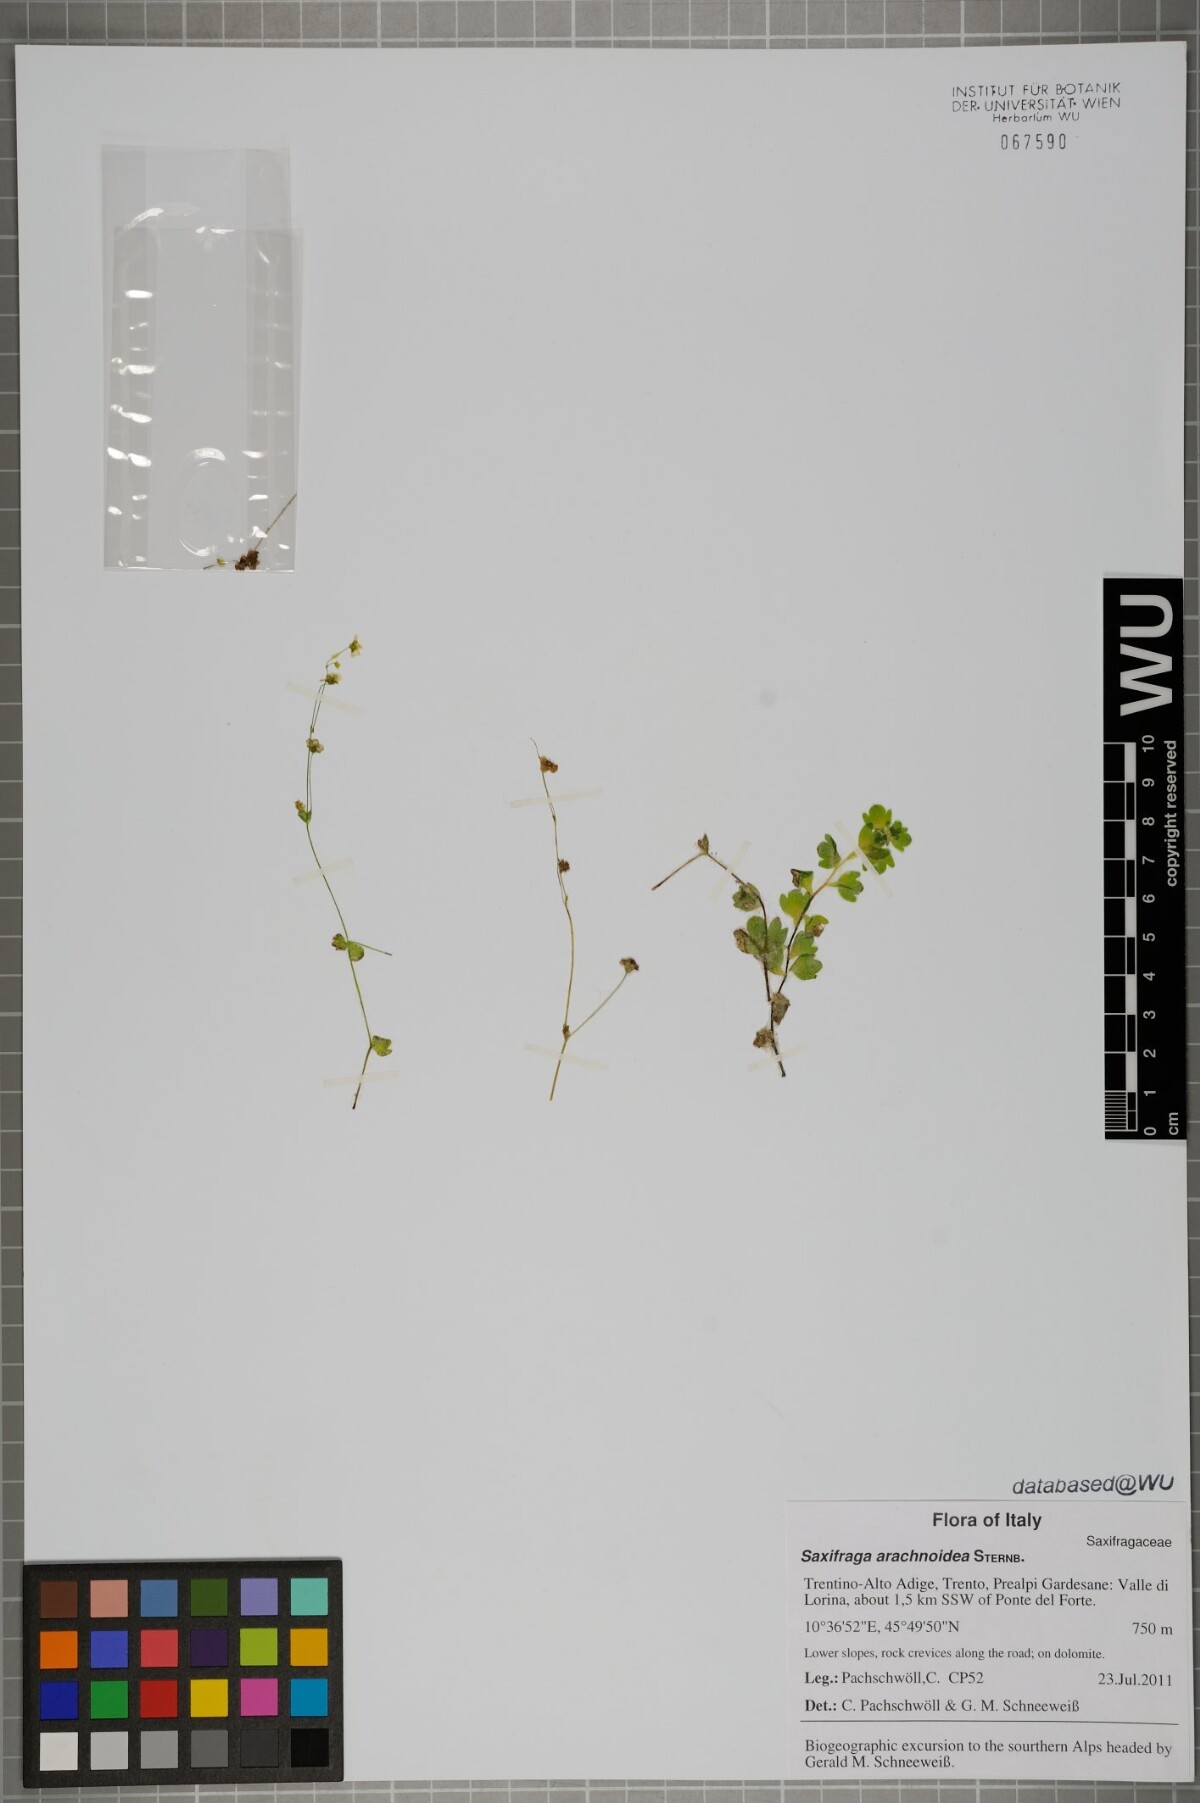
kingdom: Plantae
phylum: Tracheophyta
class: Magnoliopsida
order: Saxifragales
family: Saxifragaceae
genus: Saxifraga
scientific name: Saxifraga arachnoidea
